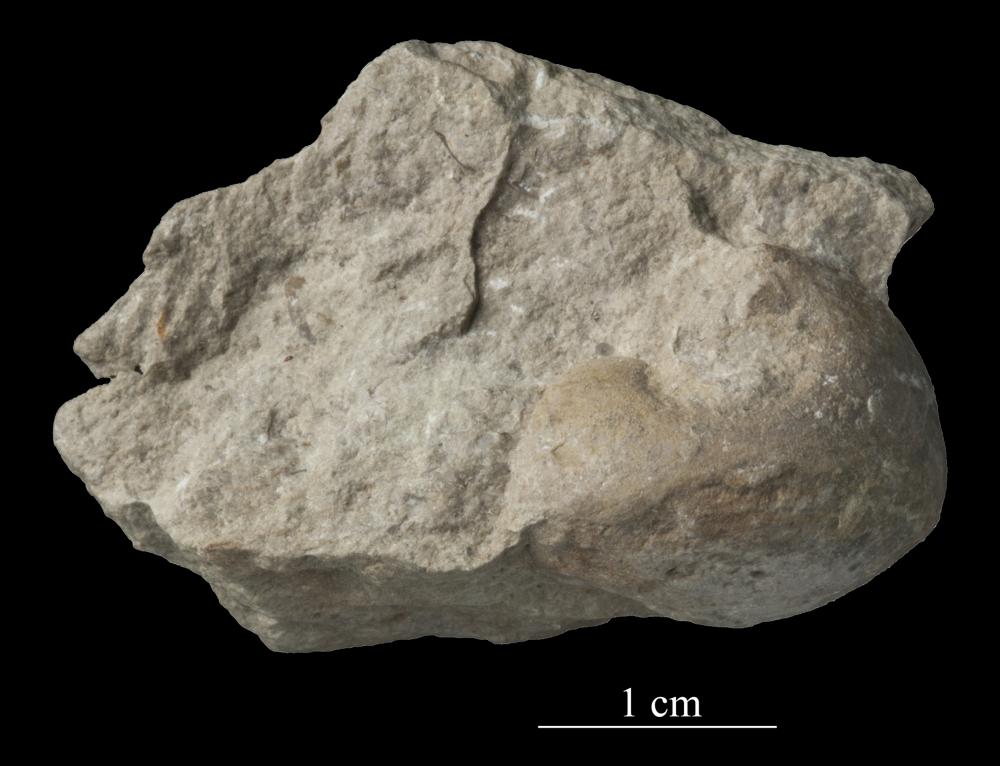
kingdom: Animalia
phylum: Mollusca
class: Gastropoda
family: Bucaniidae
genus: Kokenospira
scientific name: Kokenospira Bucaniella lateralis
